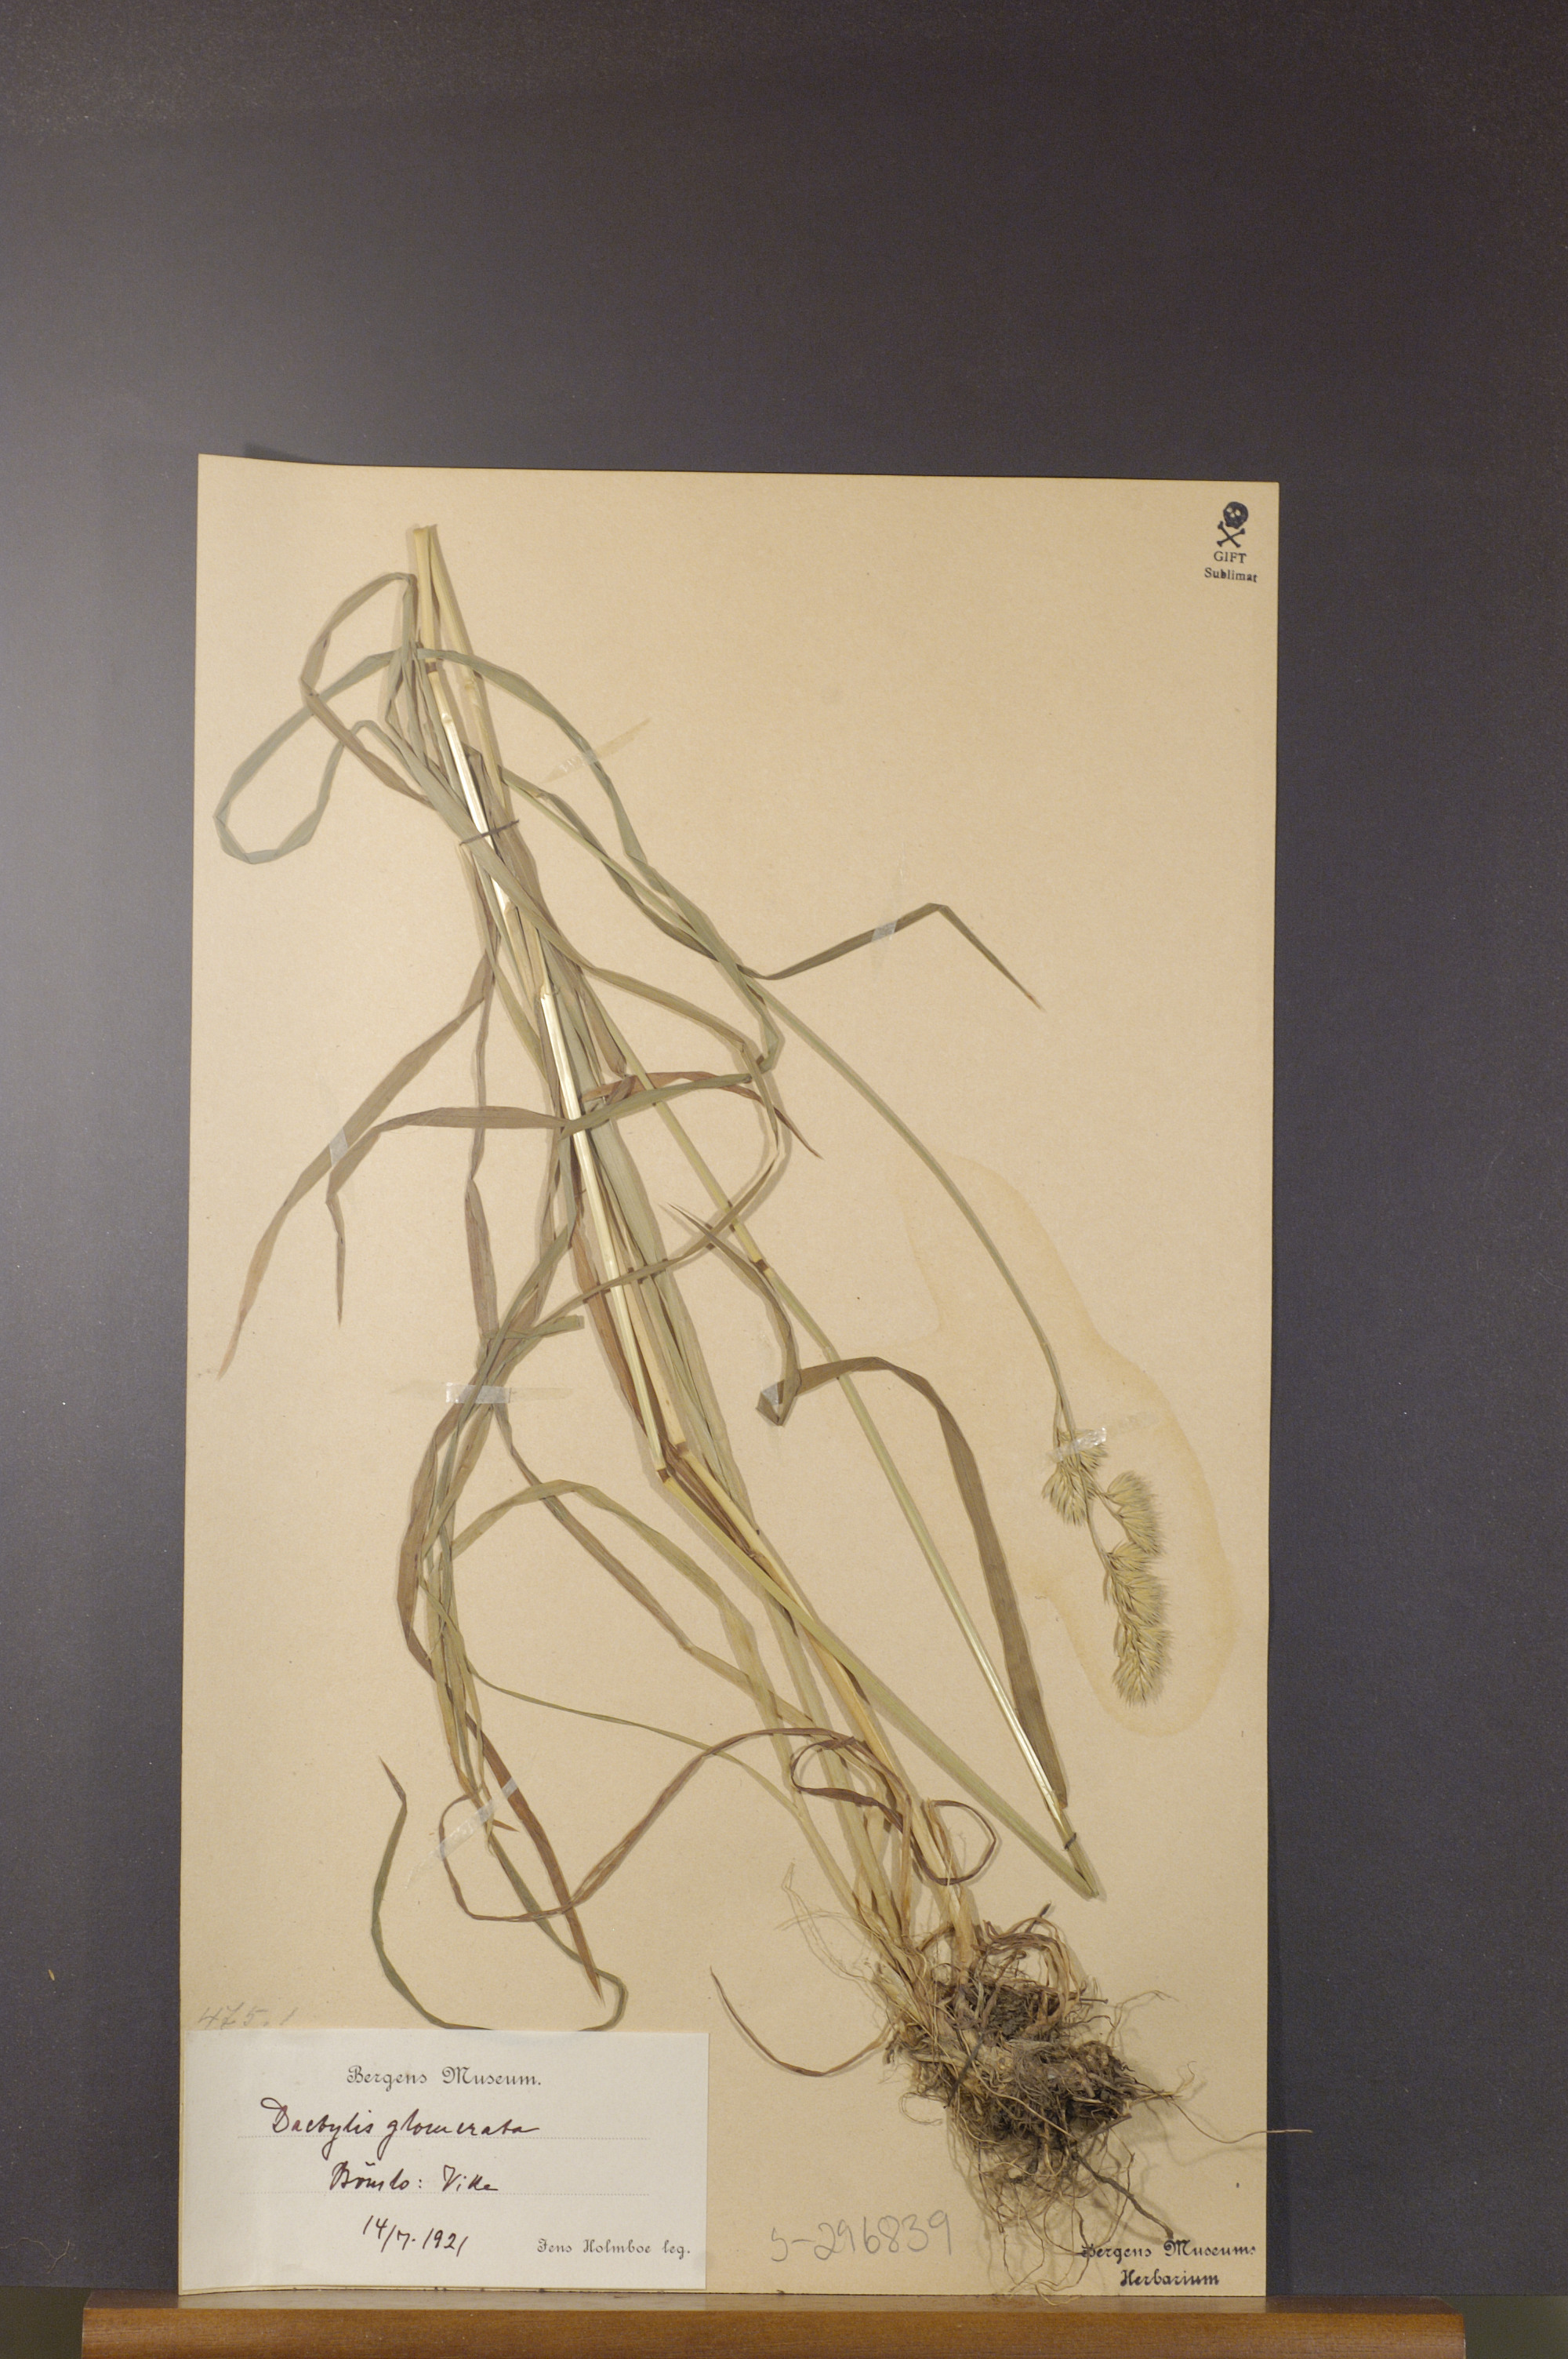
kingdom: Plantae
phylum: Tracheophyta
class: Liliopsida
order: Poales
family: Poaceae
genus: Dactylis
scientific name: Dactylis glomerata
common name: Orchardgrass
